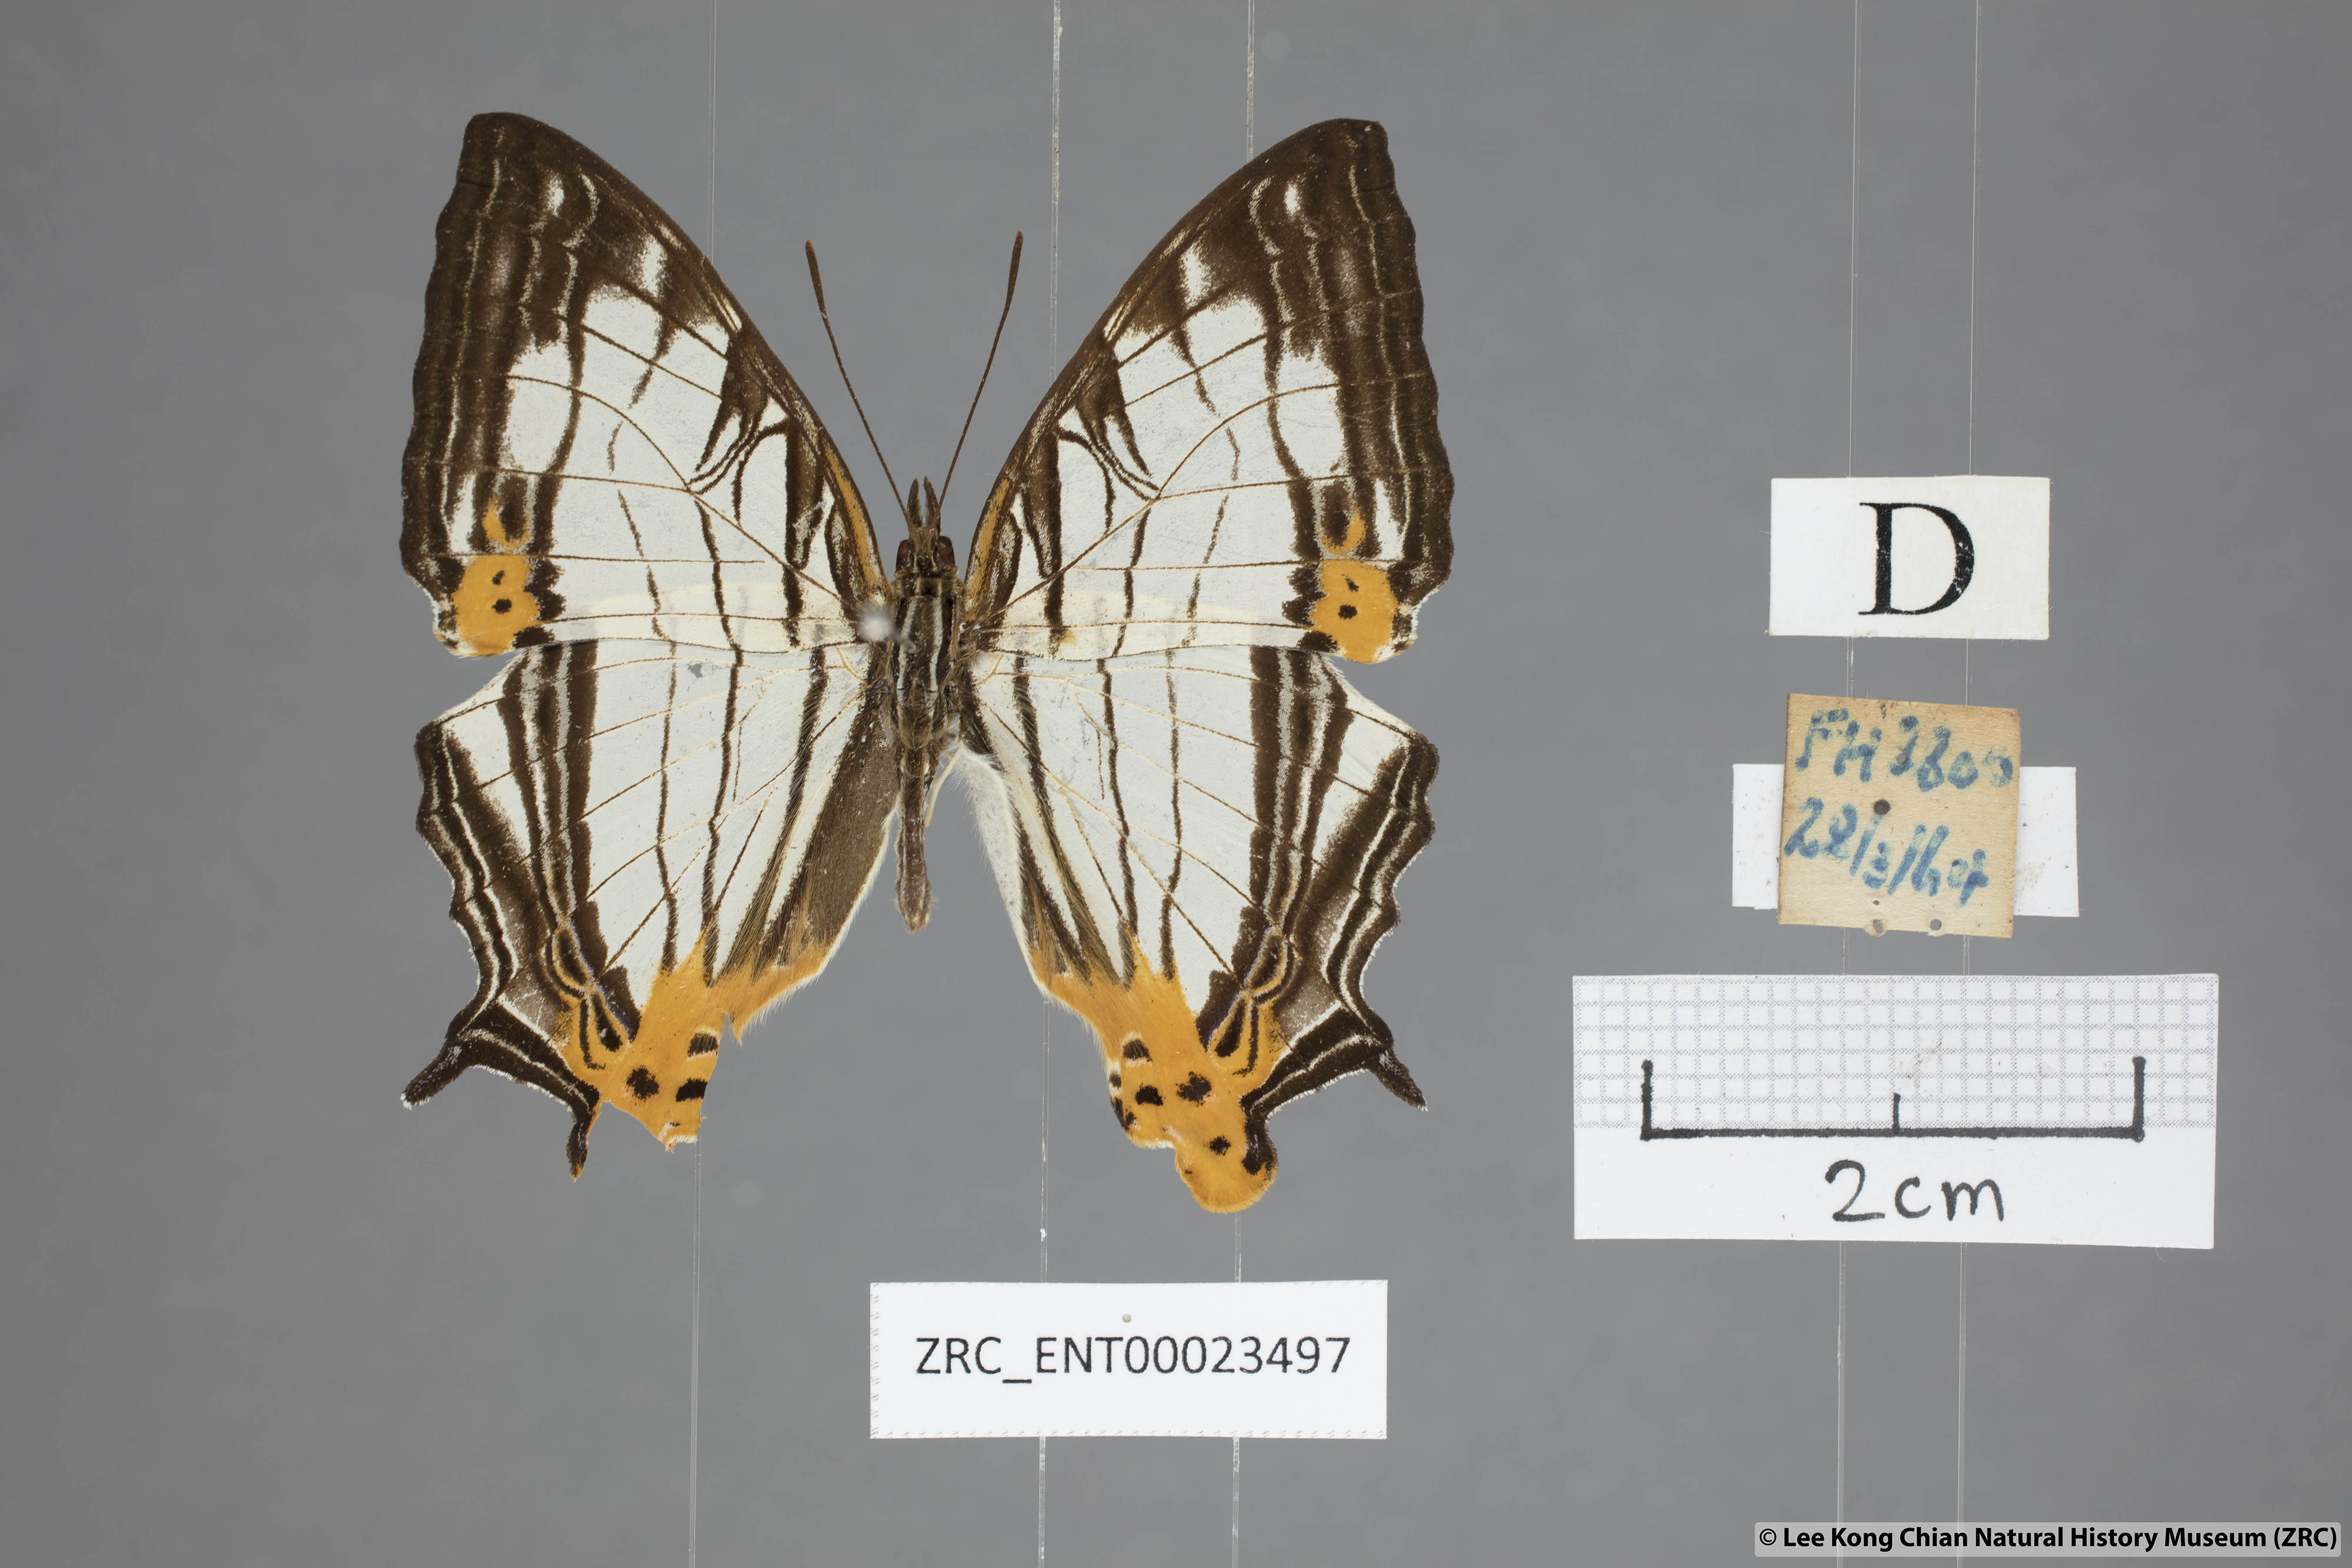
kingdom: Animalia
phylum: Arthropoda
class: Insecta
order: Lepidoptera
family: Nymphalidae
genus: Cyrestis
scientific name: Cyrestis maenalis
